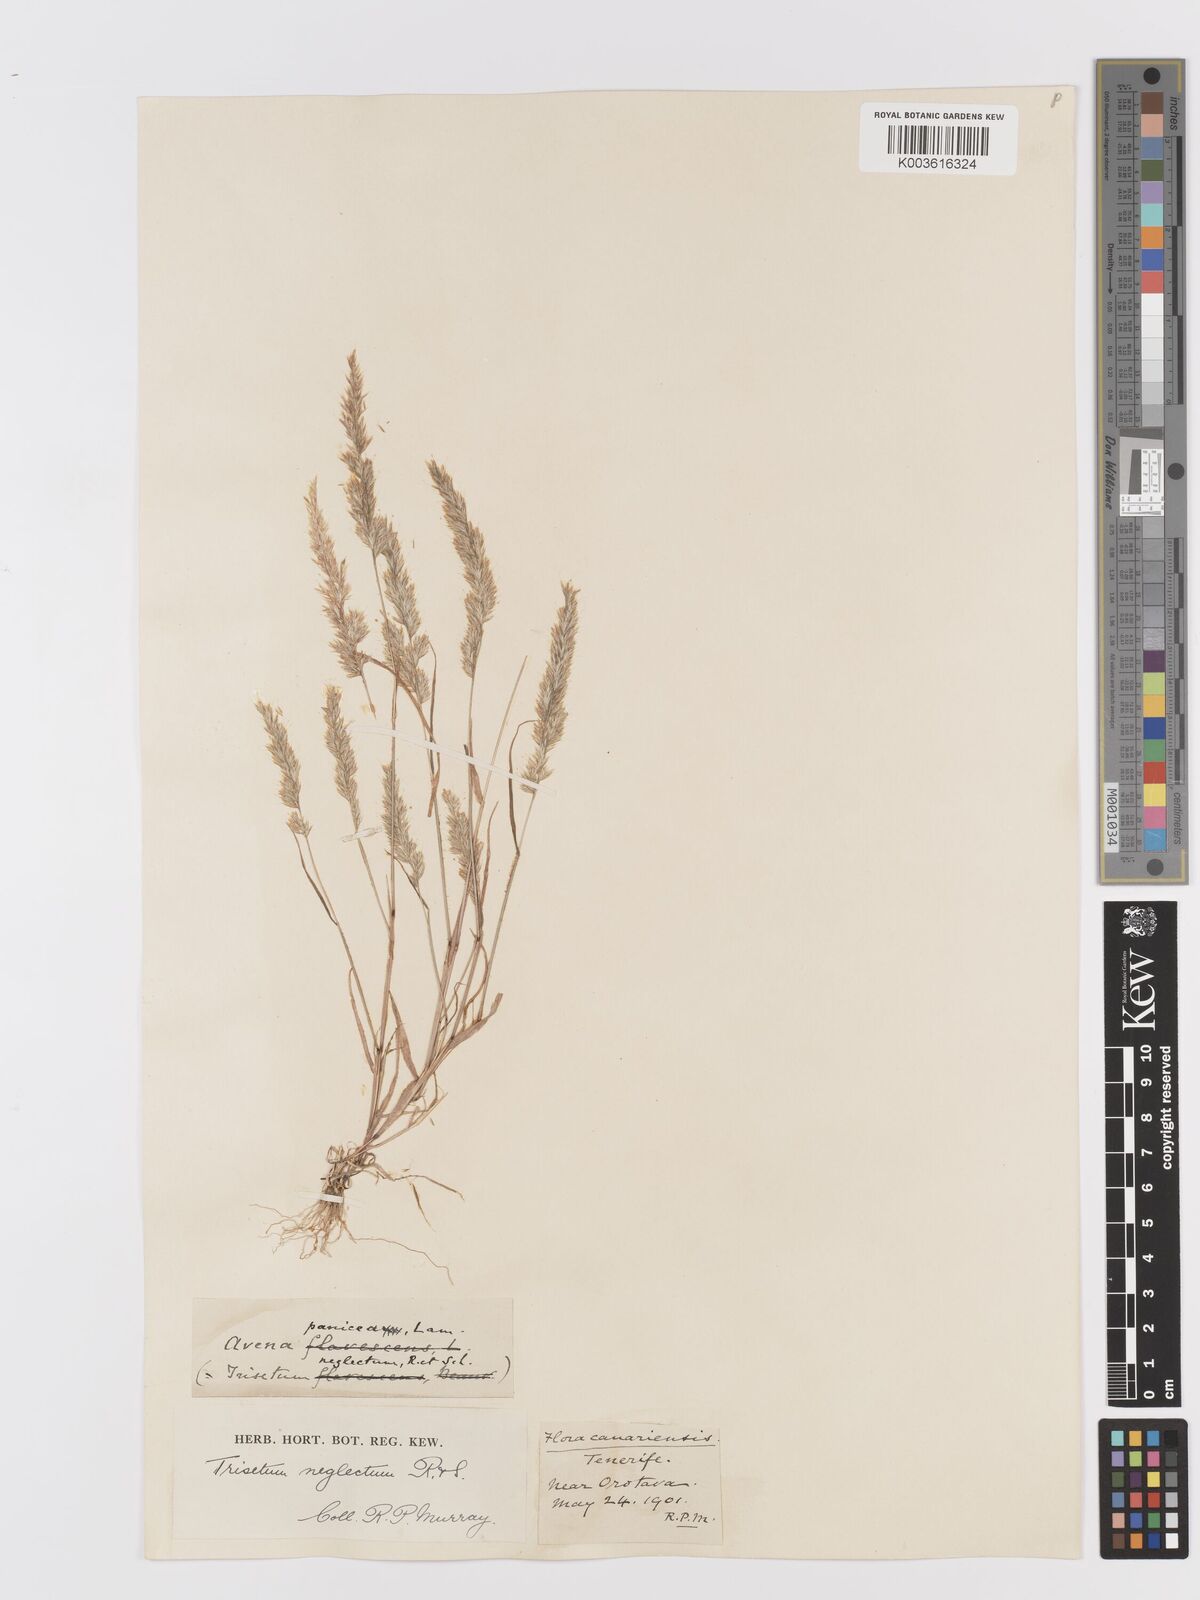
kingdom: Plantae
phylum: Tracheophyta
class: Liliopsida
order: Poales
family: Poaceae
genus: Trisetaria
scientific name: Trisetaria panicea
